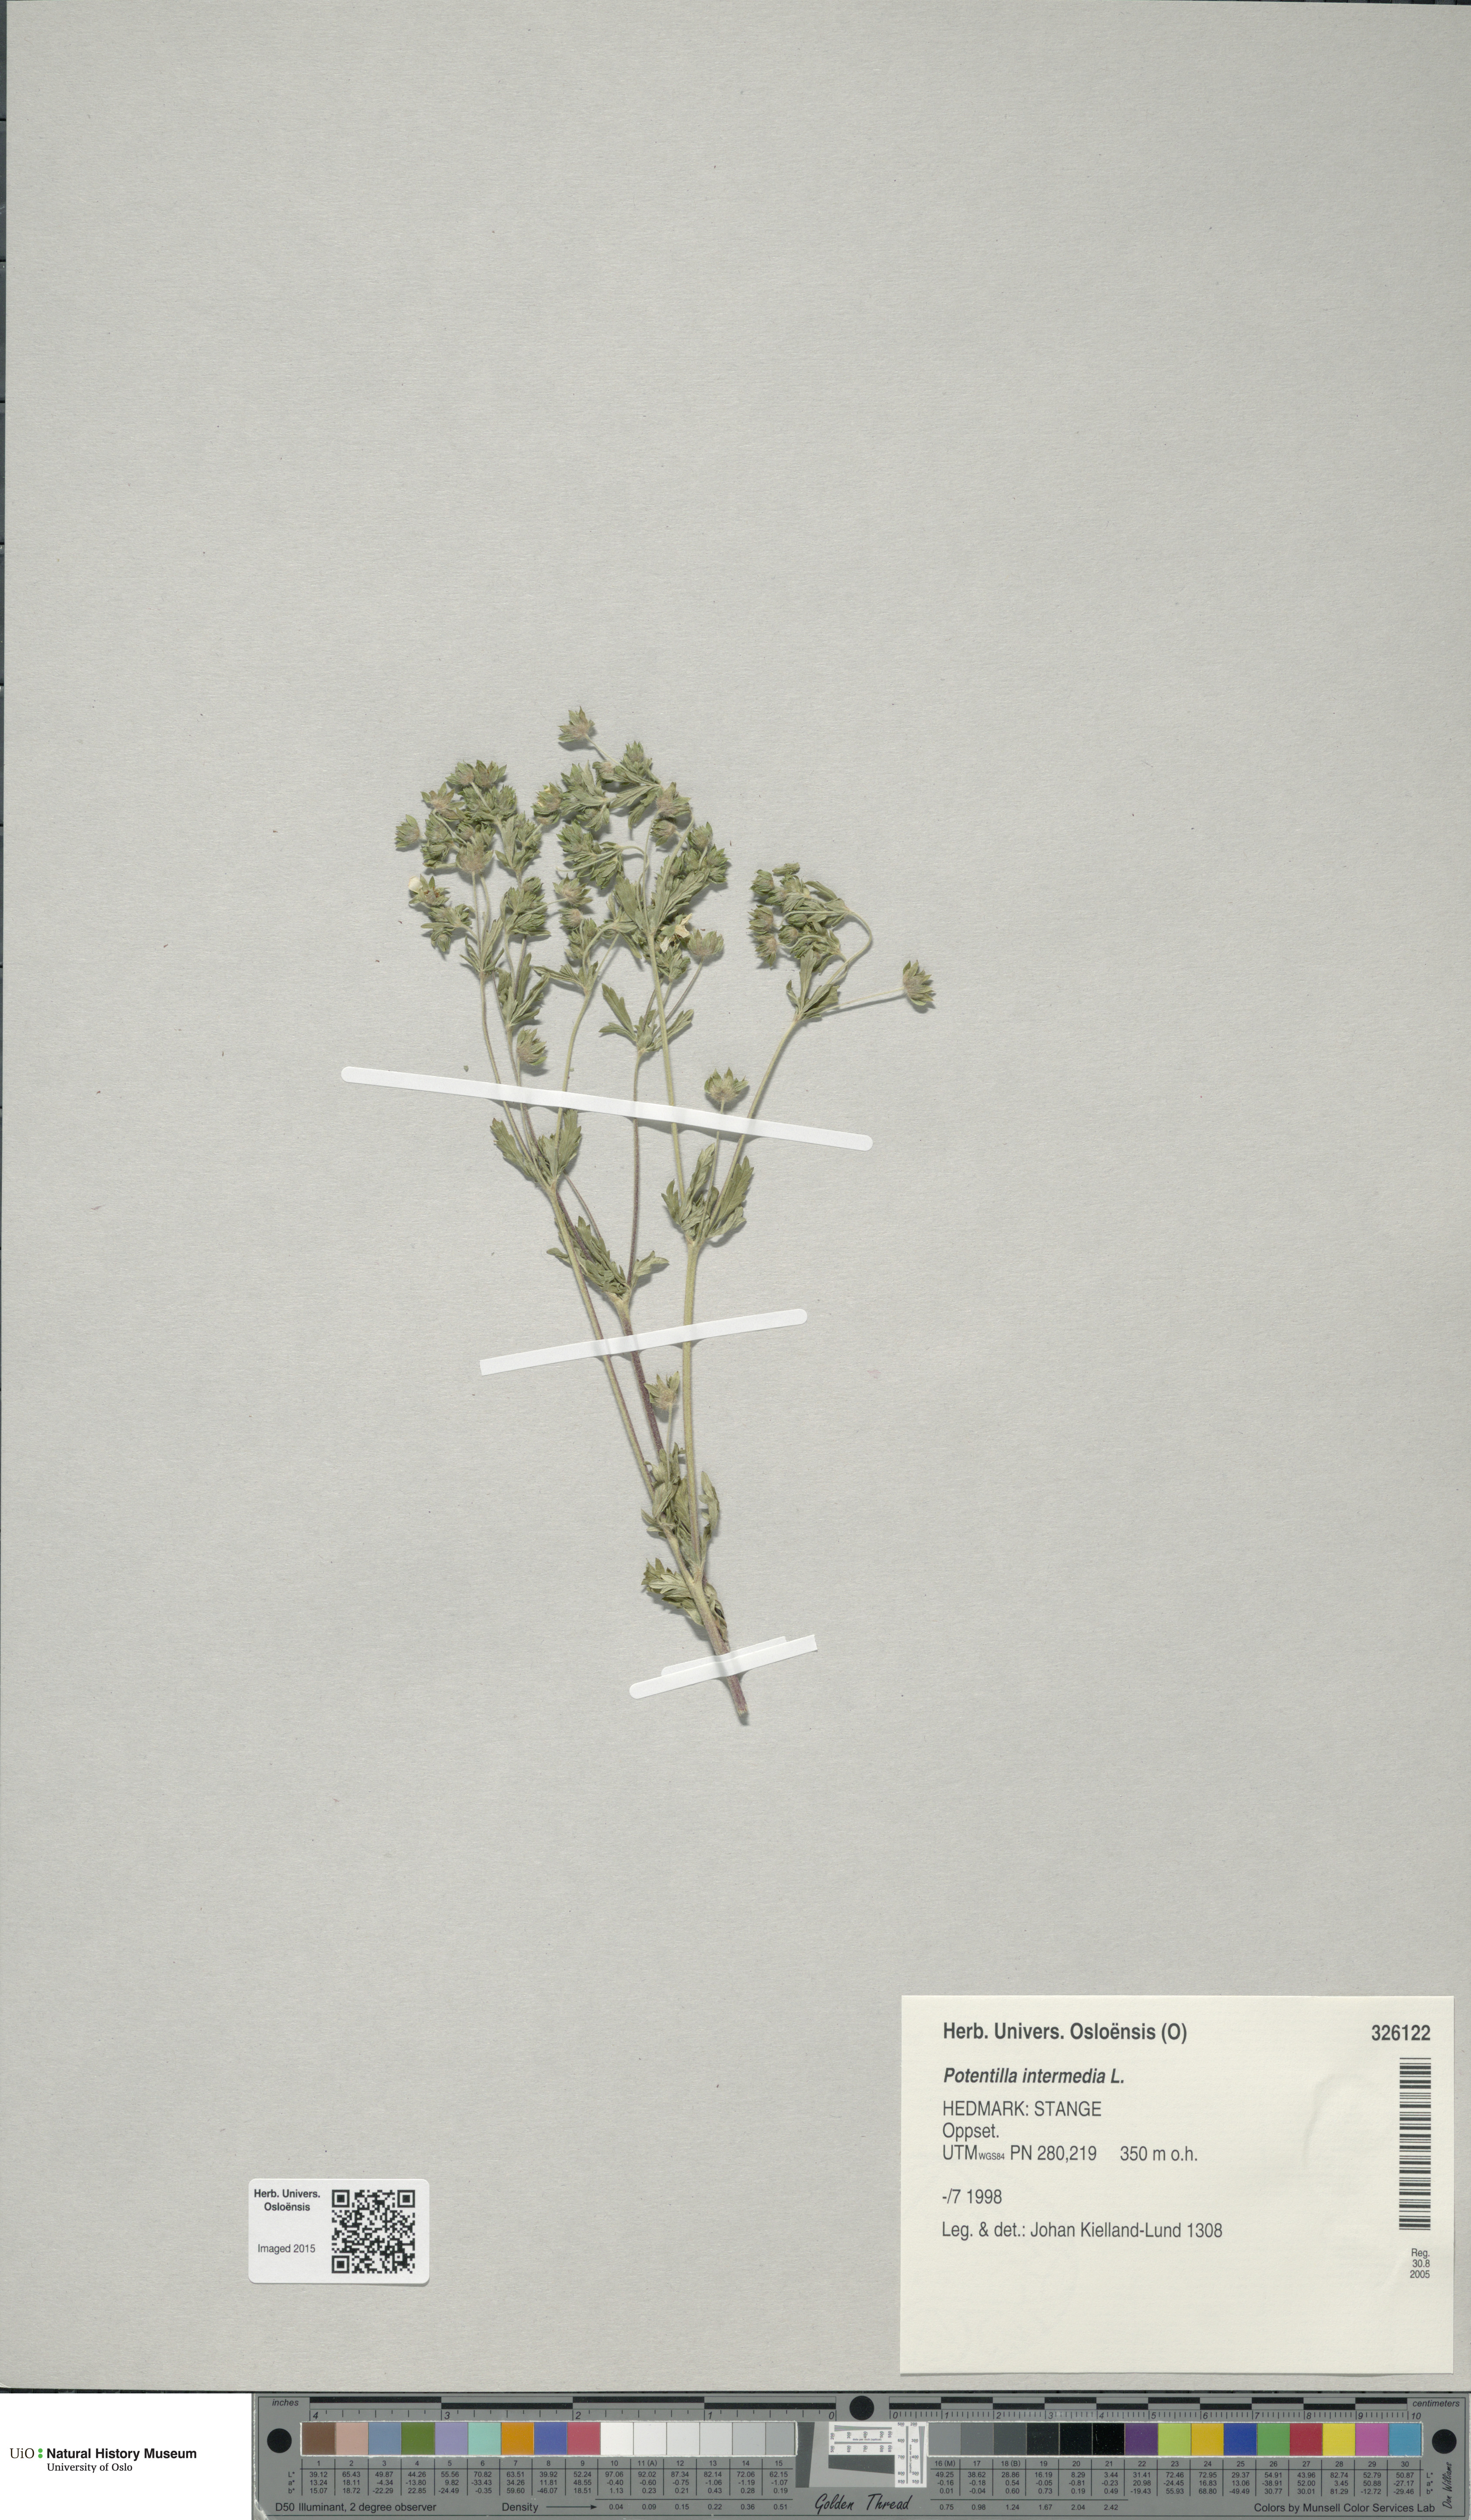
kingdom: Plantae
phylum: Tracheophyta
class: Magnoliopsida
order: Rosales
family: Rosaceae
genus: Potentilla
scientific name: Potentilla intermedia
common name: Downy cinquefoil
